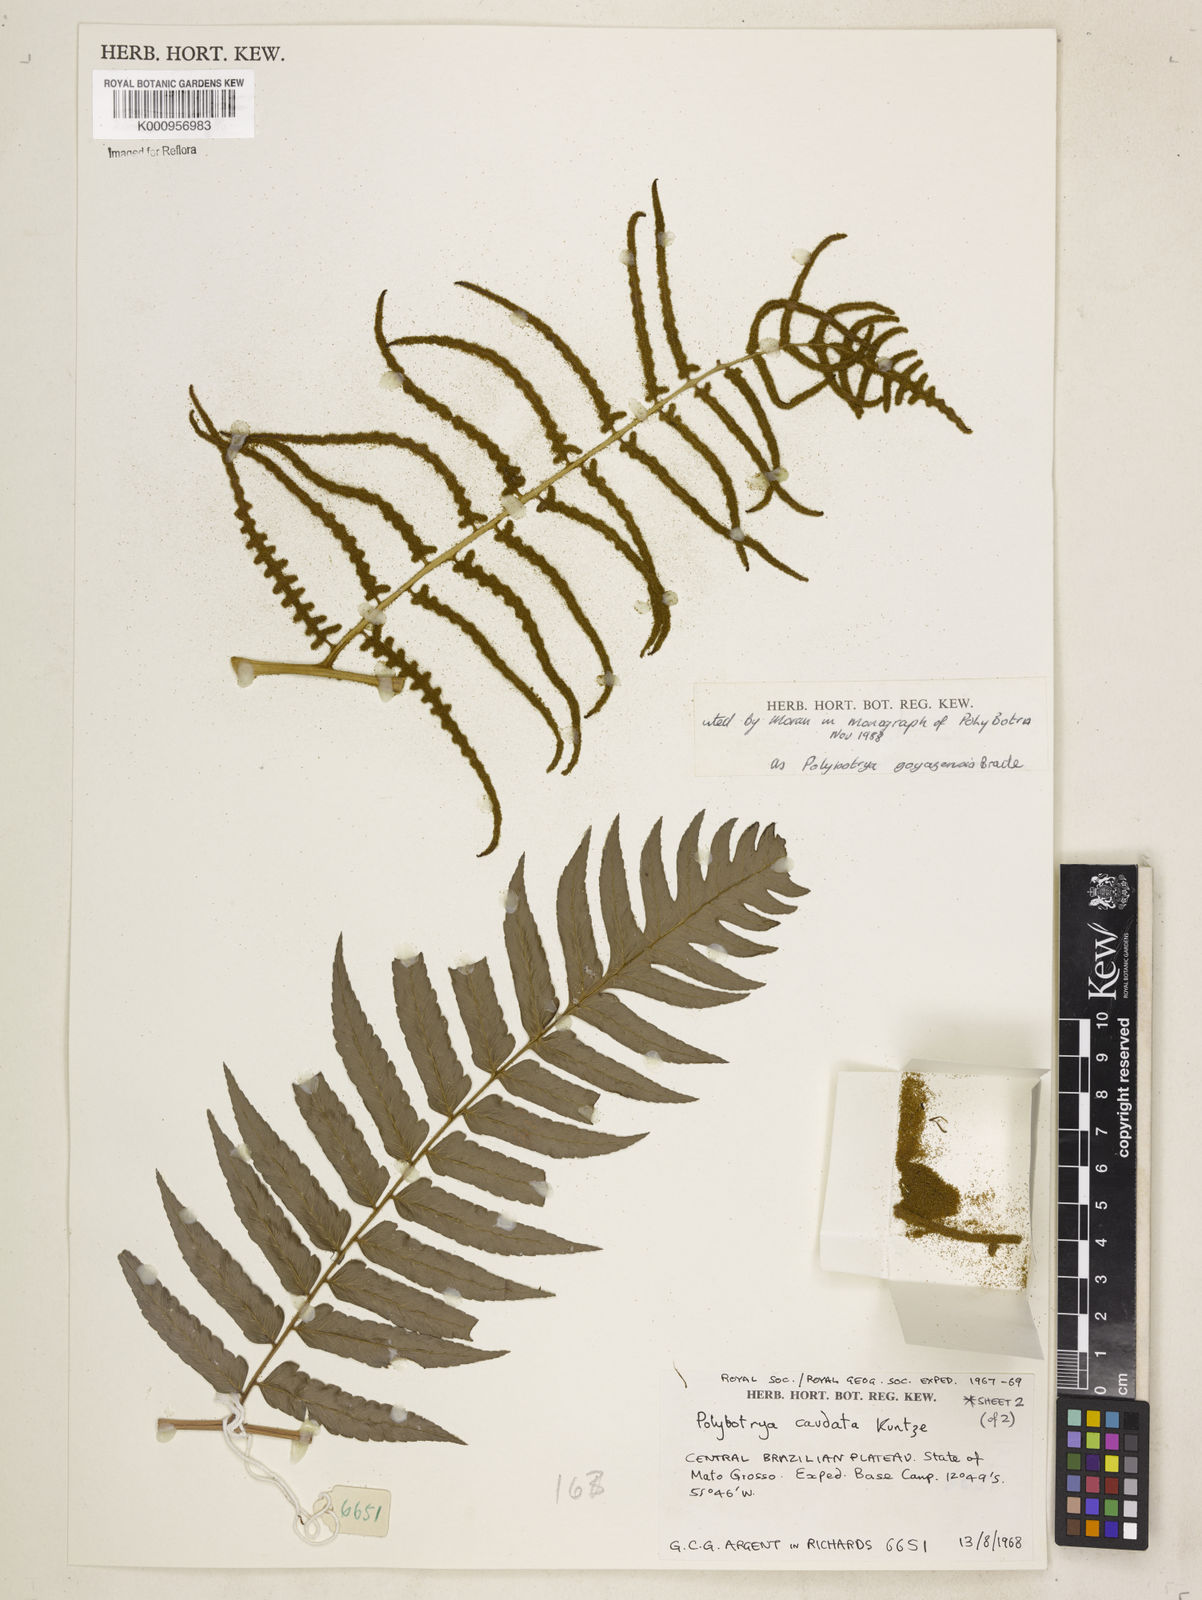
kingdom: Plantae
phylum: Tracheophyta
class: Polypodiopsida
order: Polypodiales
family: Dryopteridaceae
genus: Polybotrya
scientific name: Polybotrya goyazensis
